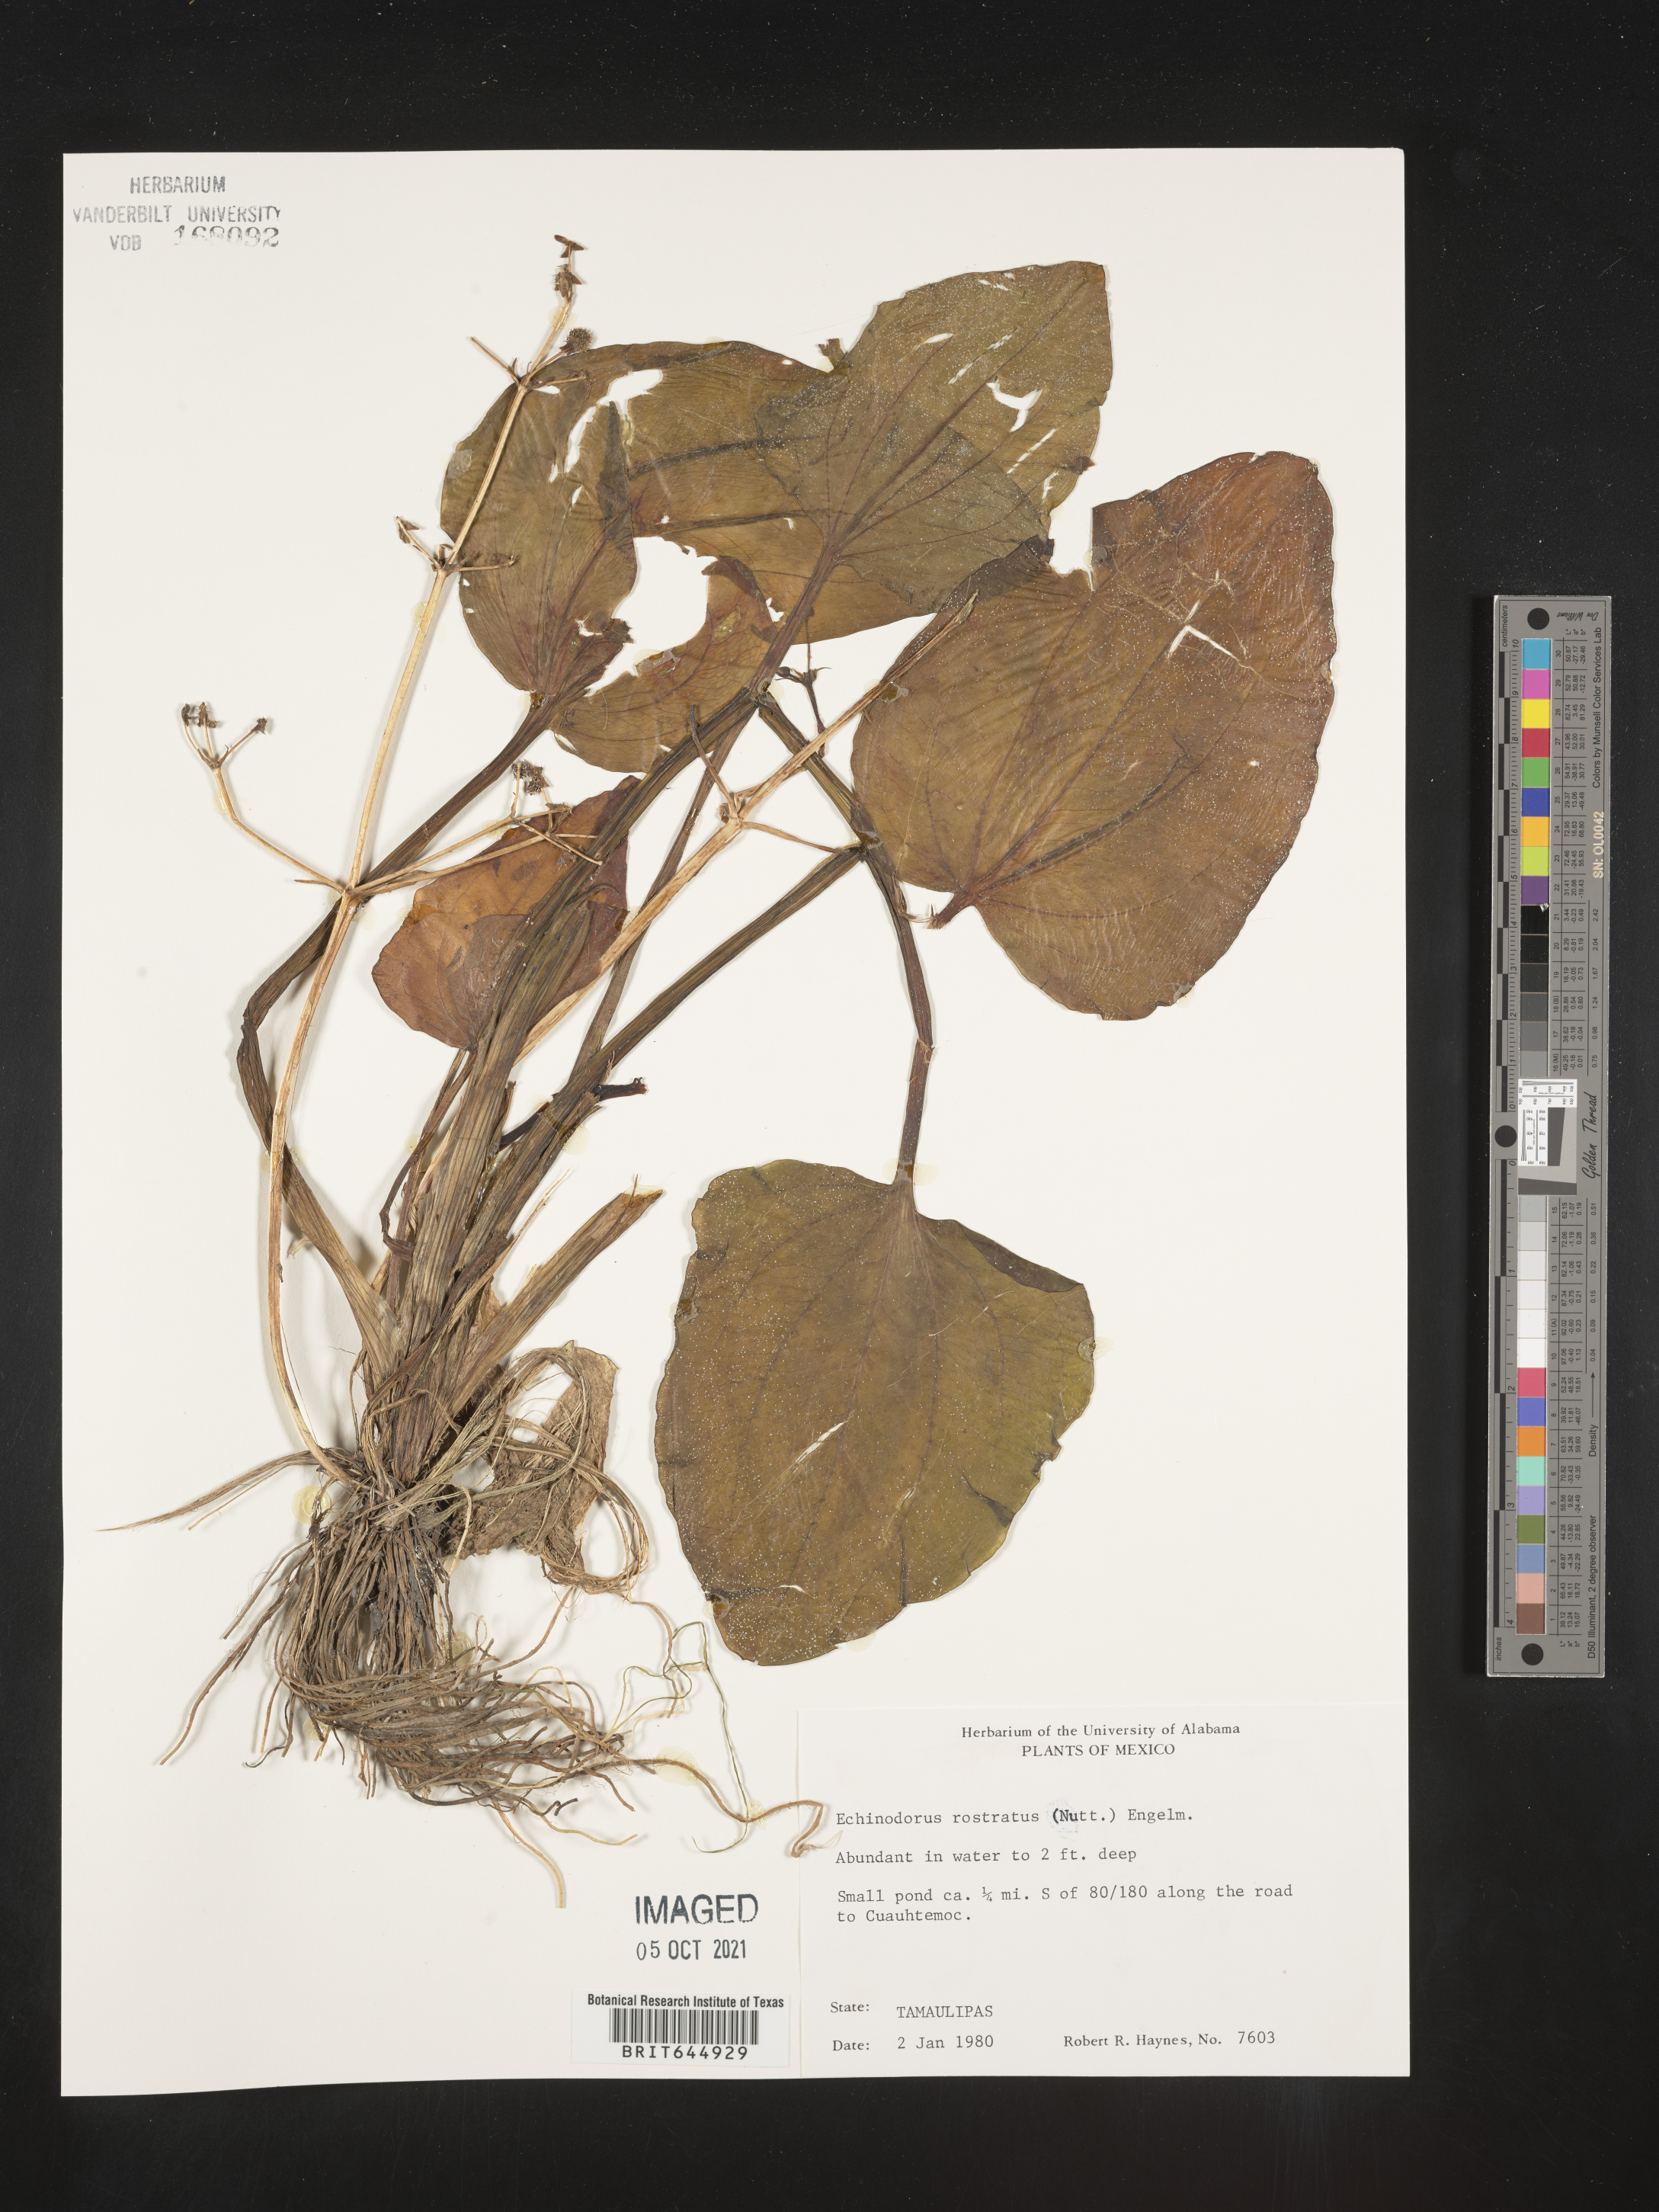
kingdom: Plantae
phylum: Tracheophyta
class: Liliopsida
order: Alismatales
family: Alismataceae
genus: Echinodorus
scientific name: Echinodorus
